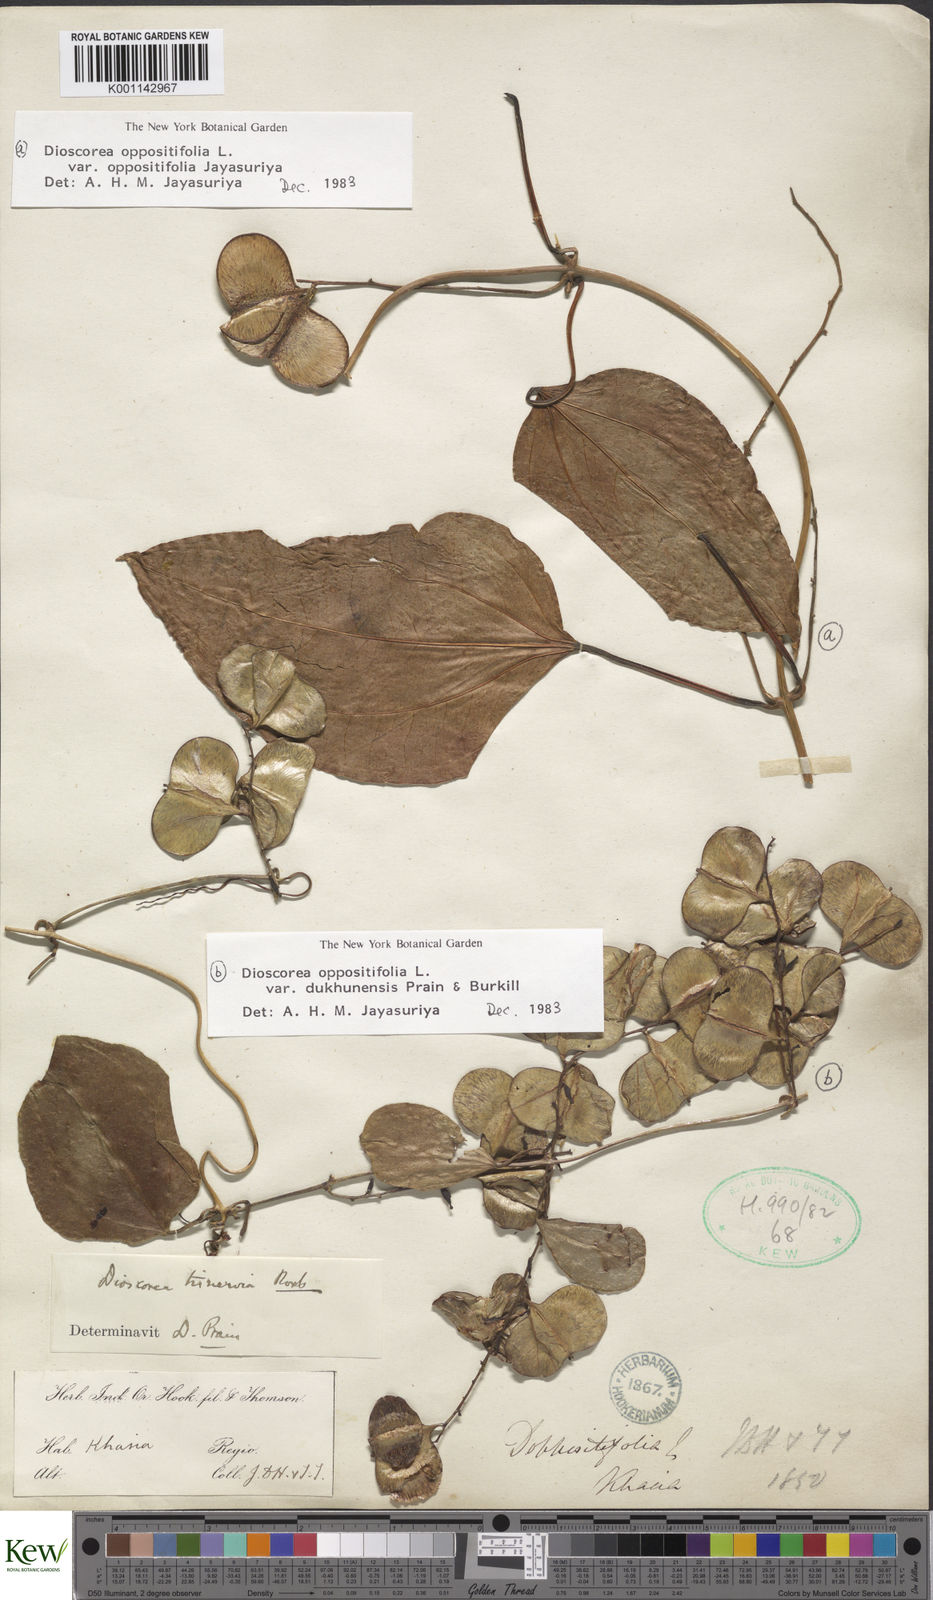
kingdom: Plantae
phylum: Tracheophyta
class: Liliopsida
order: Dioscoreales
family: Dioscoreaceae
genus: Dioscorea
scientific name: Dioscorea oppositifolia
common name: Chinese yam
